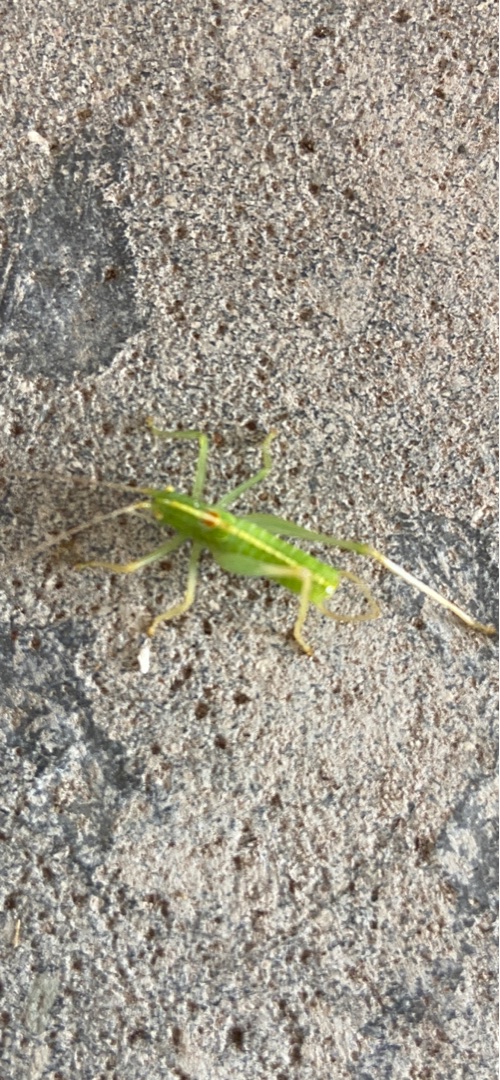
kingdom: Animalia
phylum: Arthropoda
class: Insecta
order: Orthoptera
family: Tettigoniidae
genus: Meconema
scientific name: Meconema meridionale
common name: Kortvinget egegræshoppe
